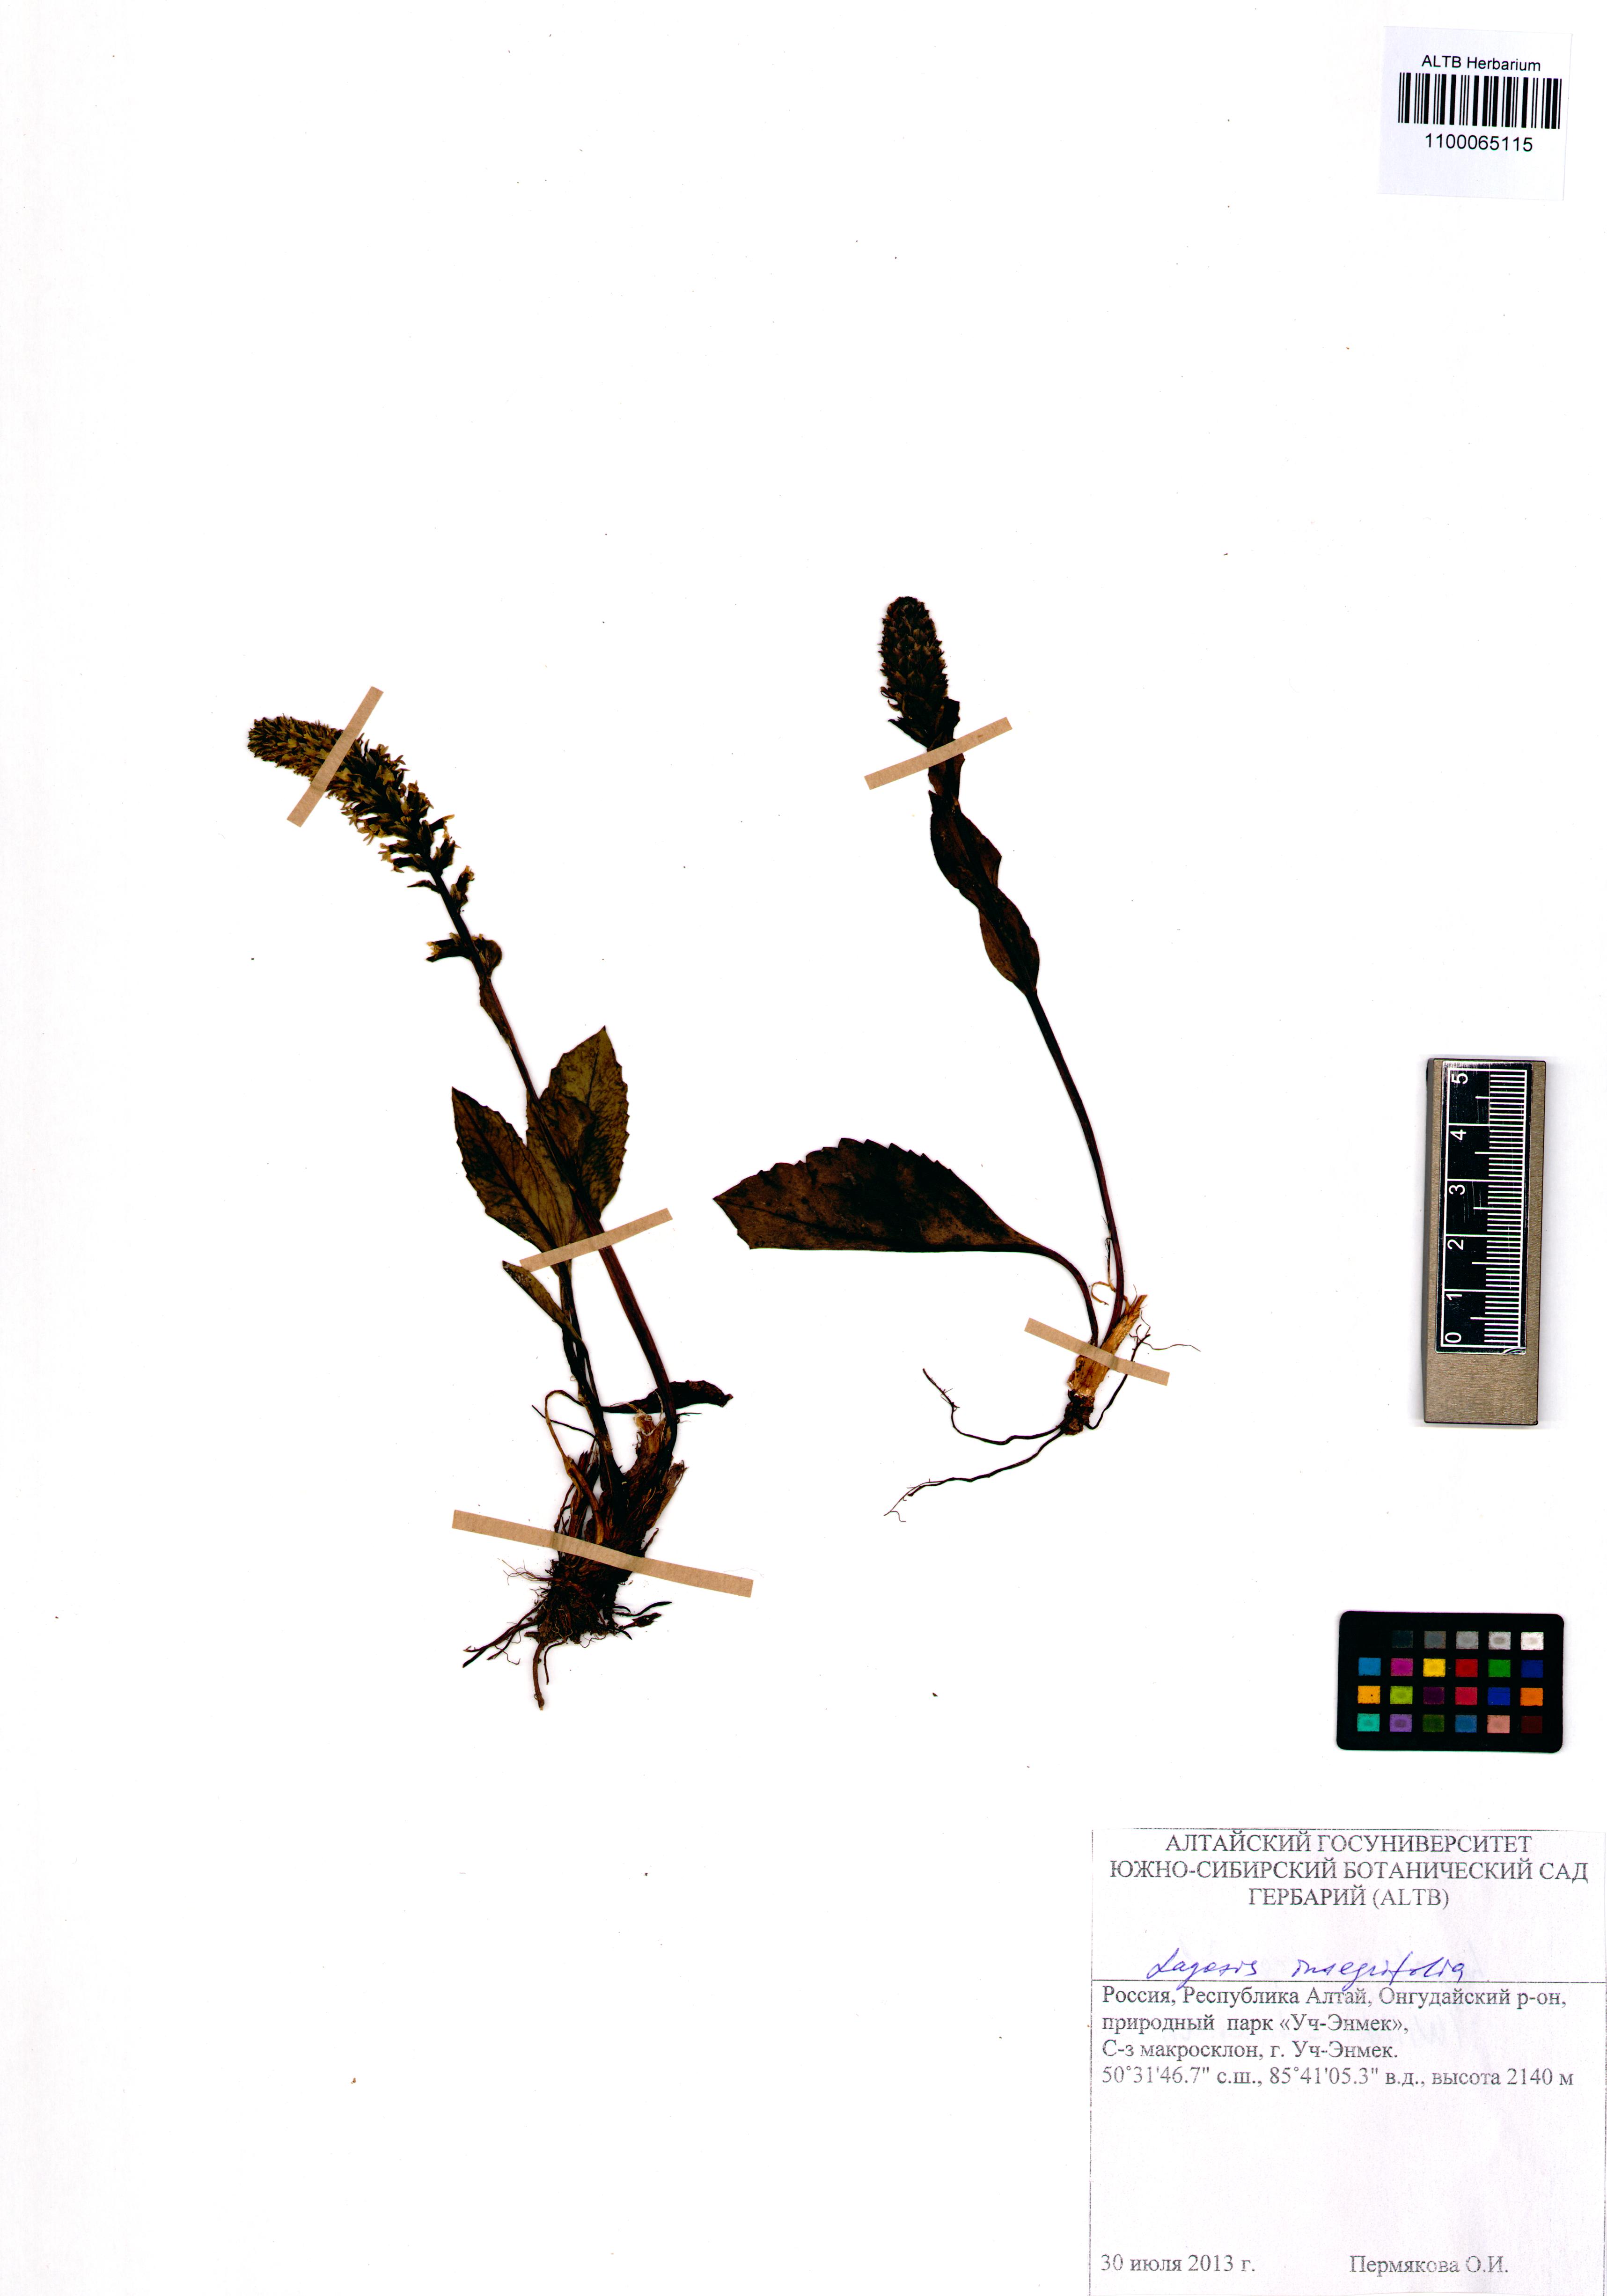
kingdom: Plantae
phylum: Tracheophyta
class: Magnoliopsida
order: Lamiales
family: Plantaginaceae
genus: Lagotis
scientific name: Lagotis integrifolia
